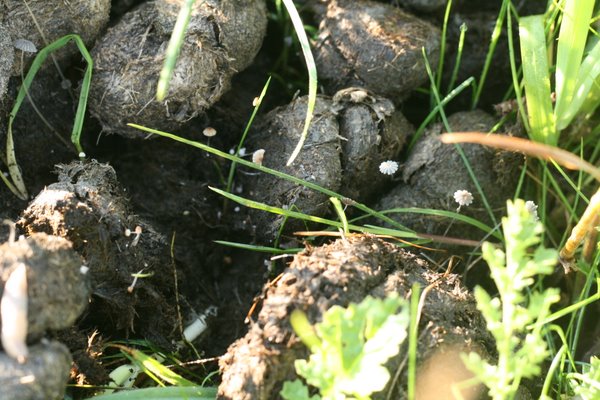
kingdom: Fungi
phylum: Basidiomycota
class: Agaricomycetes
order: Agaricales
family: Psathyrellaceae
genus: Coprinopsis
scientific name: Coprinopsis
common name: blækhat
